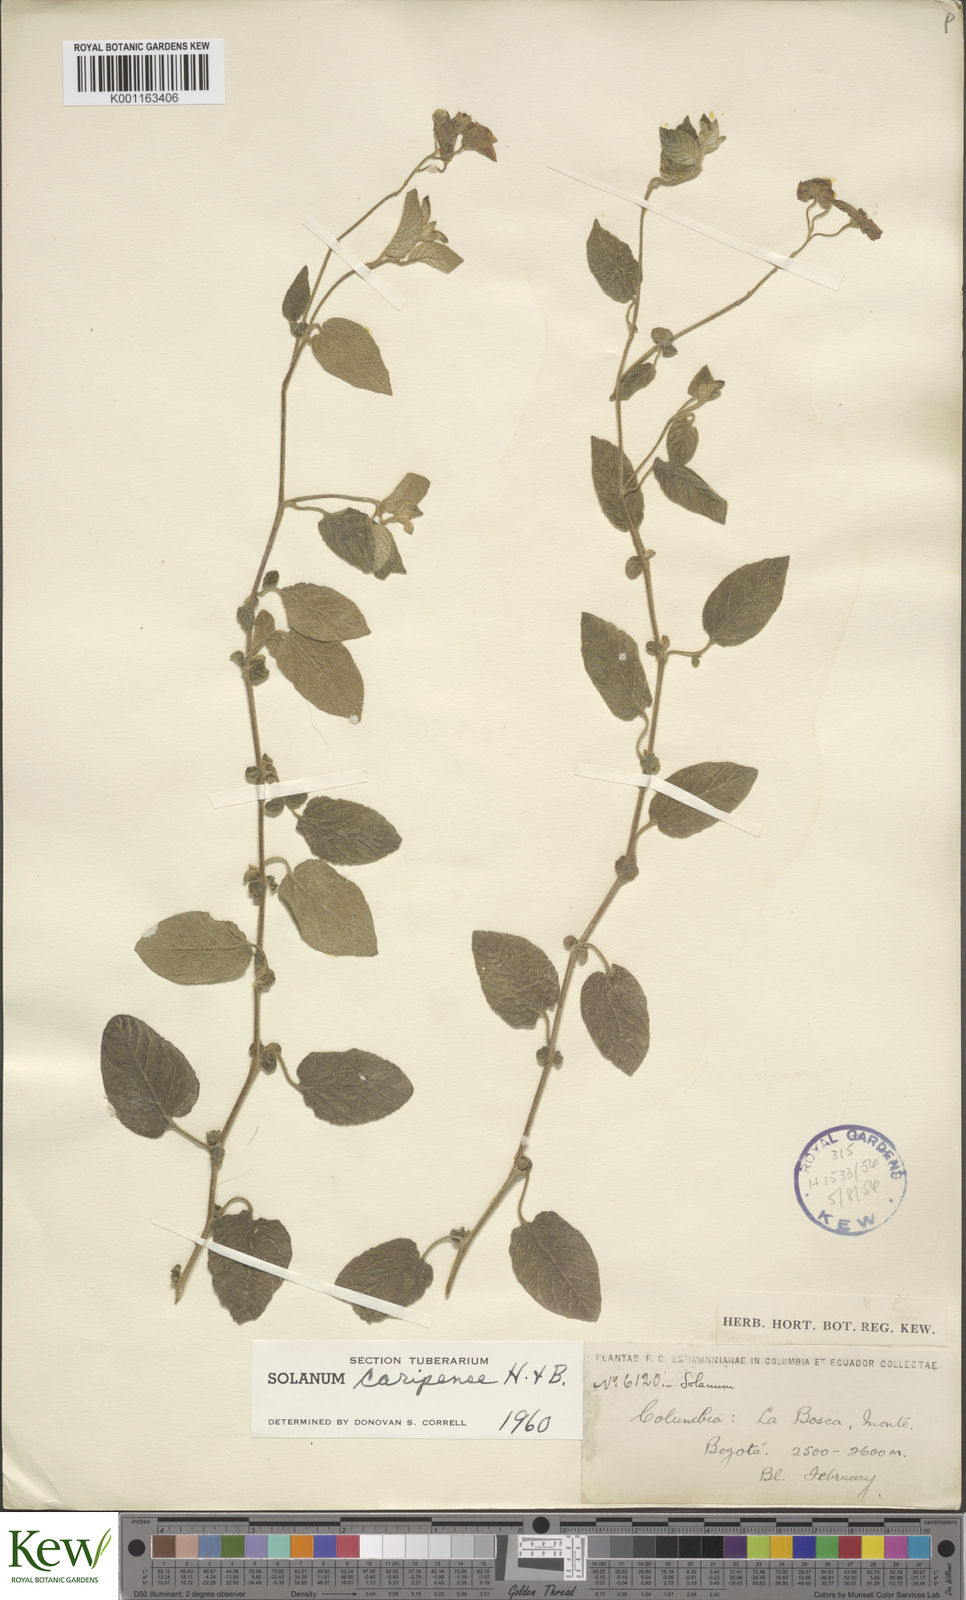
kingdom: Plantae
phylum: Tracheophyta
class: Magnoliopsida
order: Solanales
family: Solanaceae
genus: Solanum
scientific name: Solanum caripense
